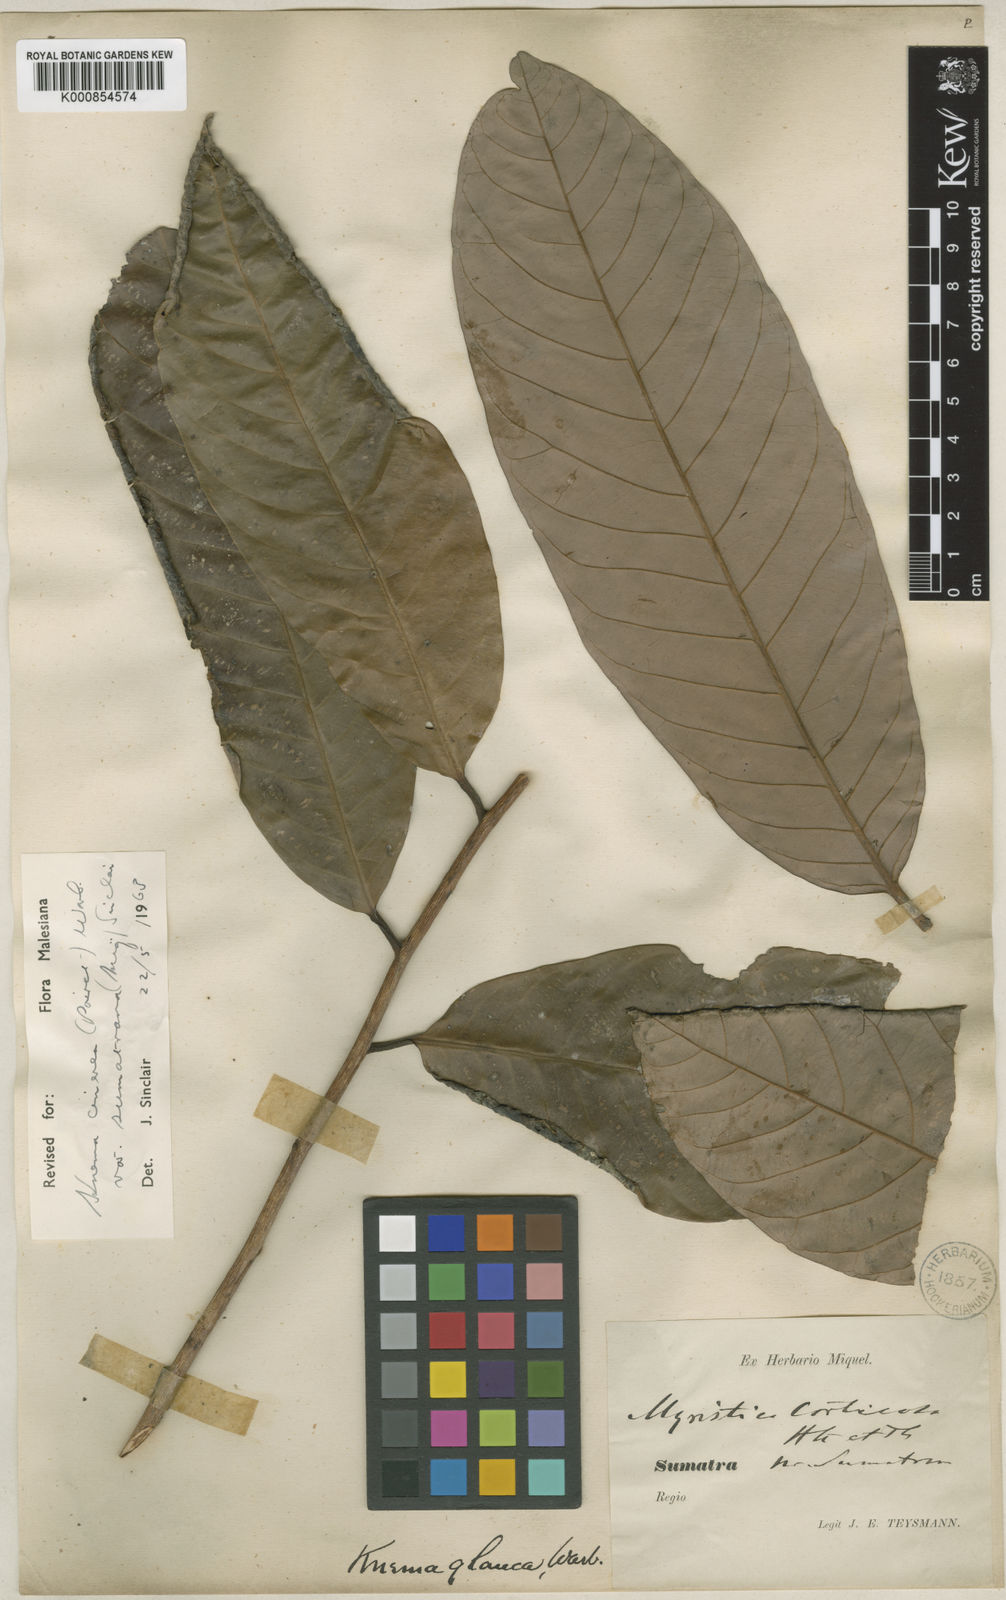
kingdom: Plantae
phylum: Tracheophyta
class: Magnoliopsida
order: Magnoliales
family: Myristicaceae
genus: Knema
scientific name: Knema glaucescens
